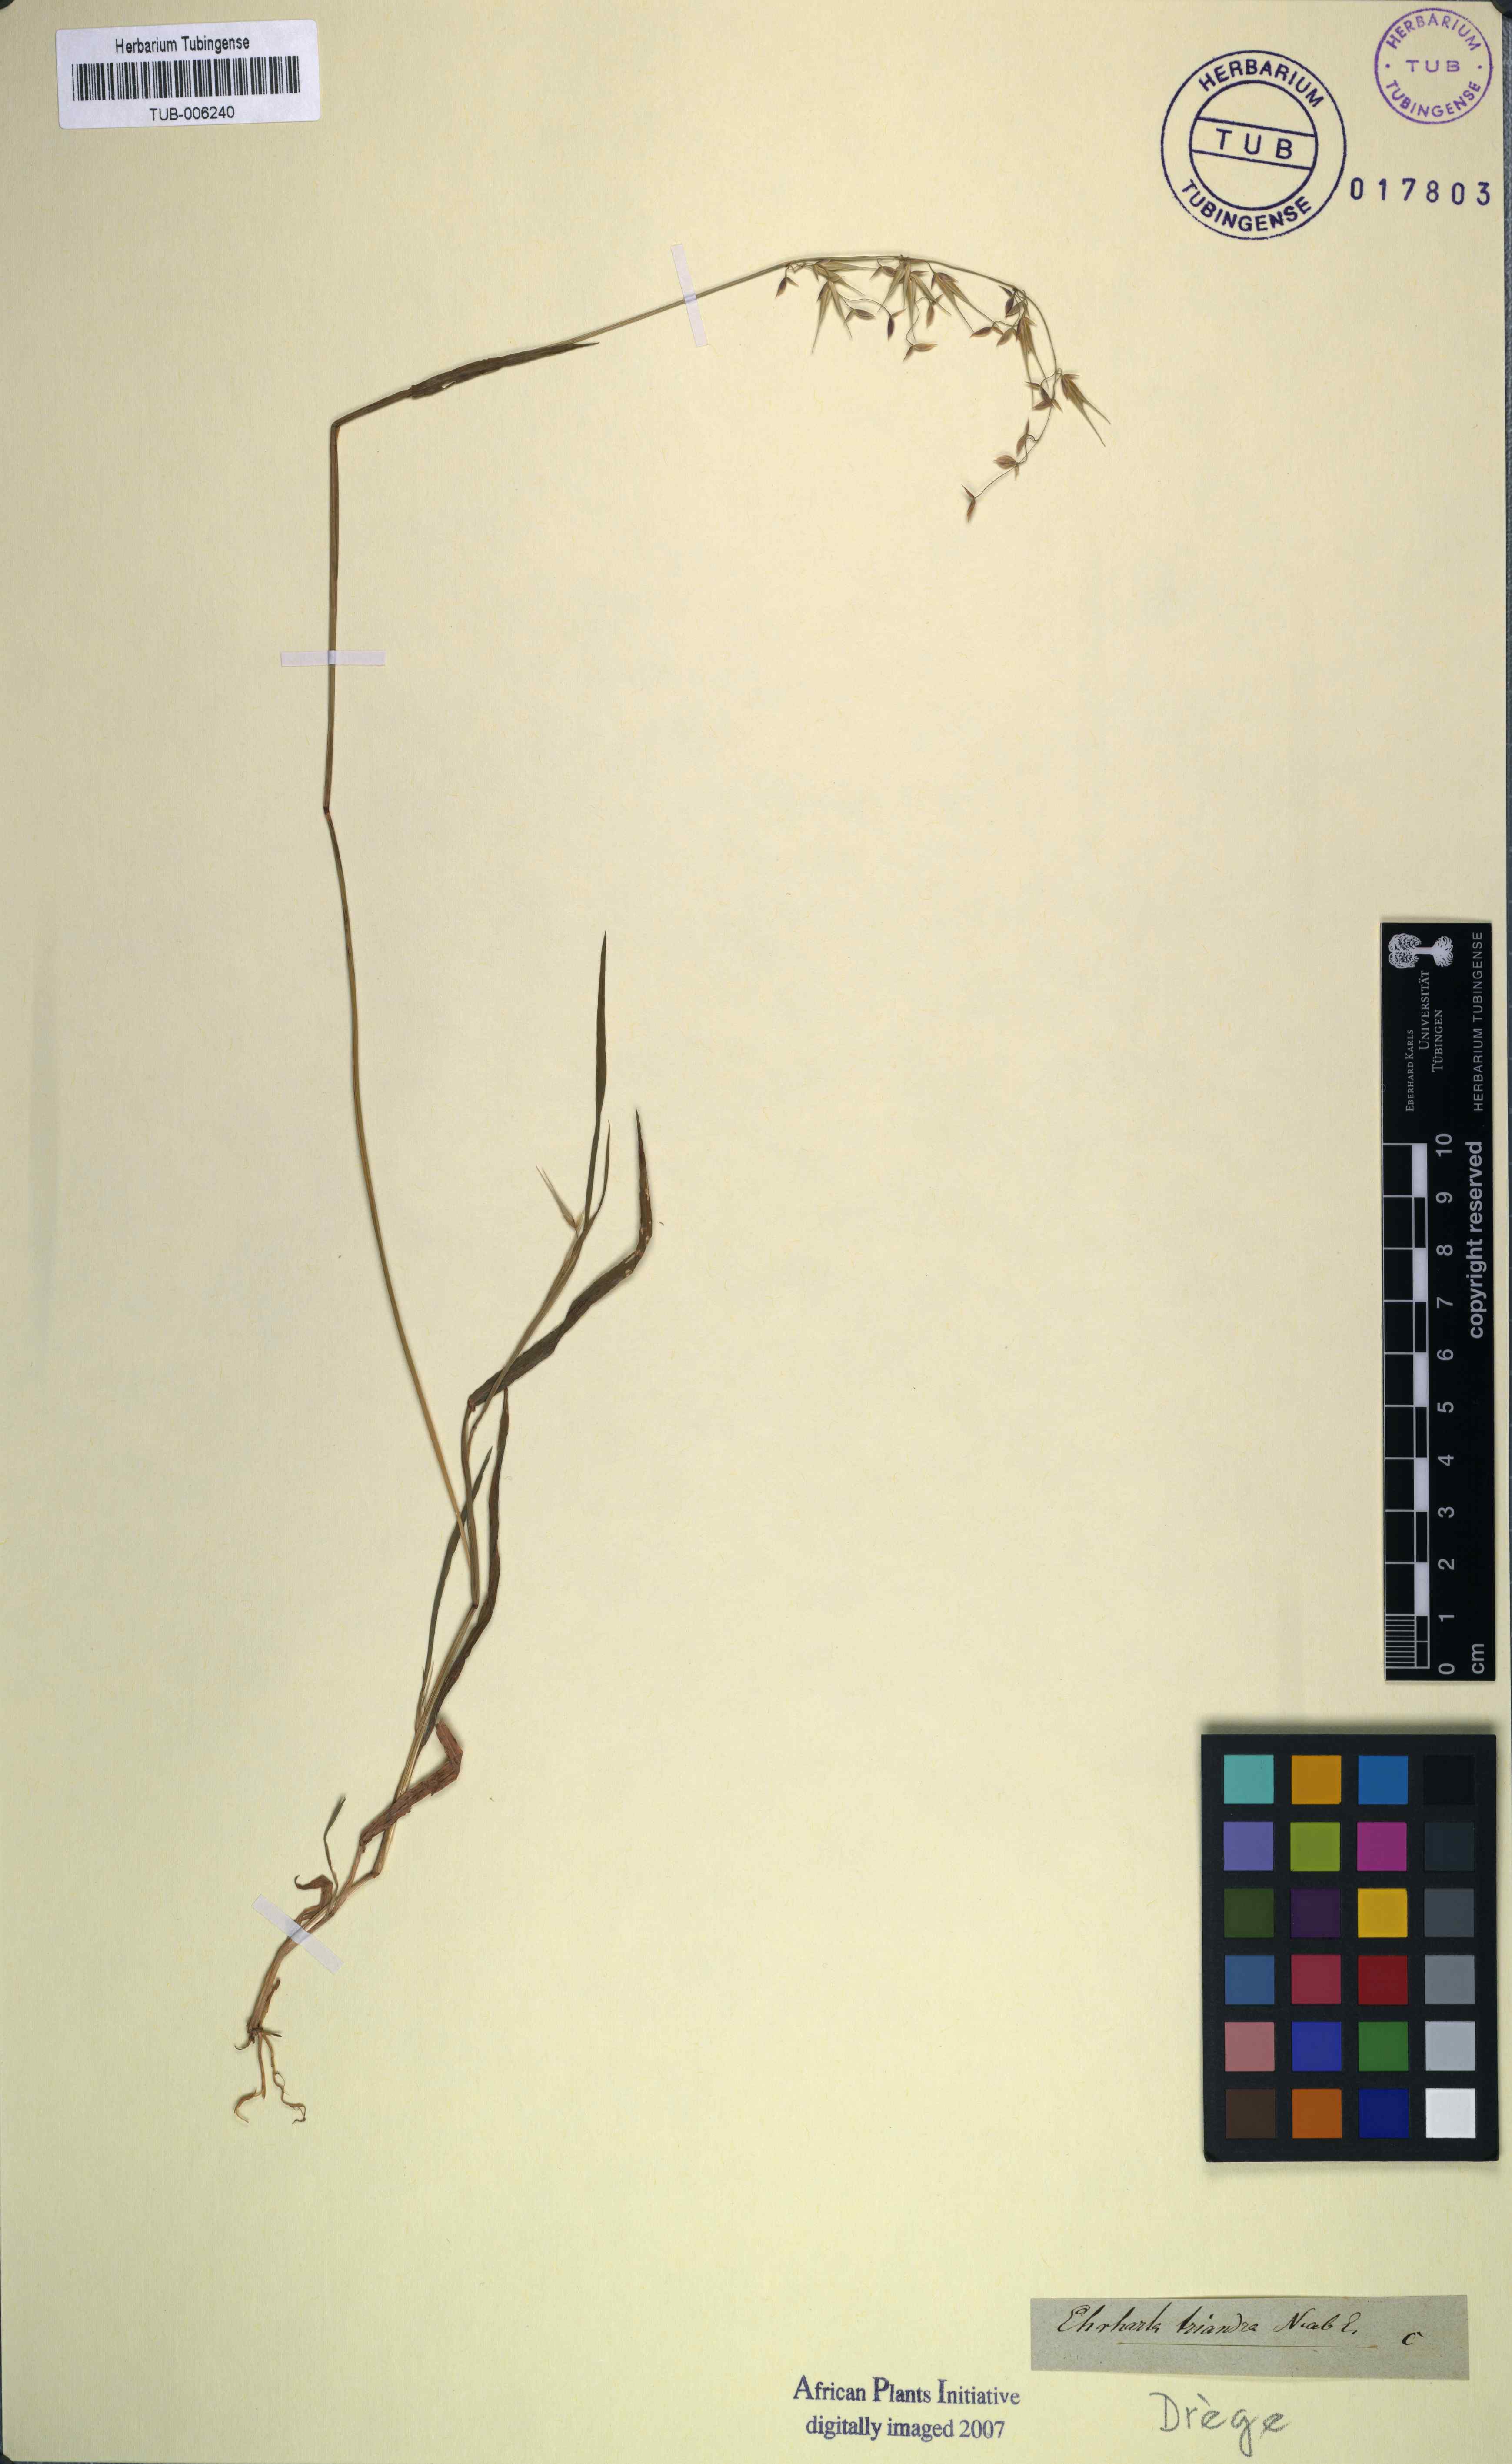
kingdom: Plantae
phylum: Tracheophyta
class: Liliopsida
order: Poales
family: Poaceae
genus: Ehrharta
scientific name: Ehrharta triandra
